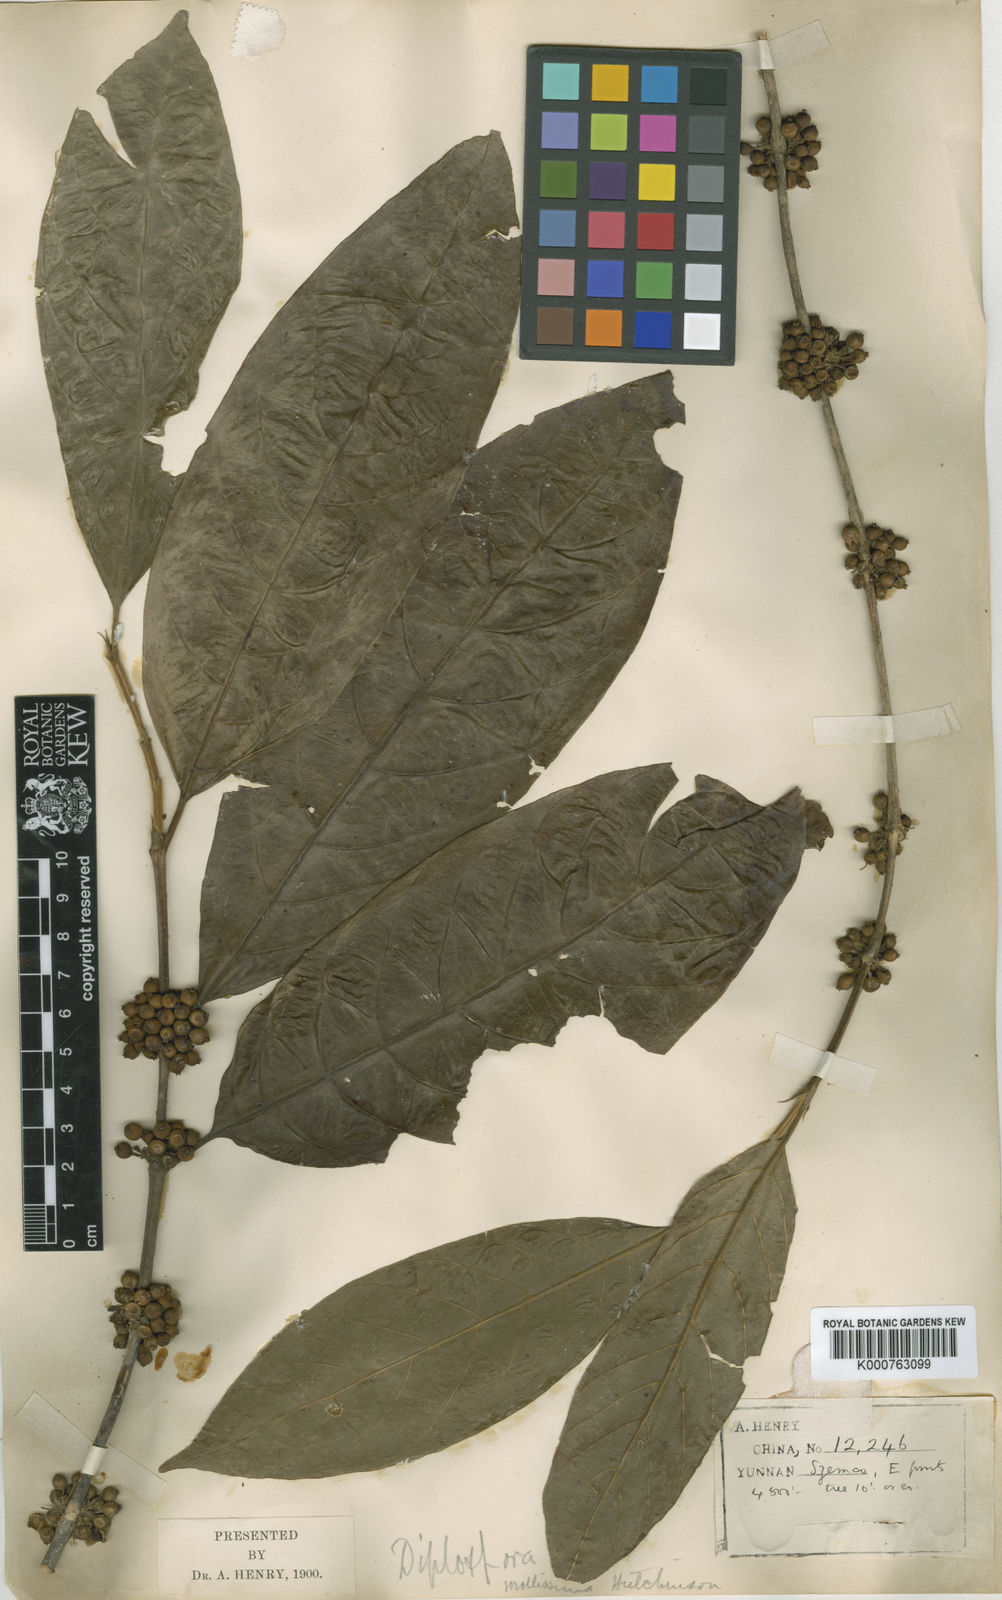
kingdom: Plantae
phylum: Tracheophyta
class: Magnoliopsida
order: Gentianales
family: Rubiaceae
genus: Diplospora
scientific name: Diplospora mollissima
